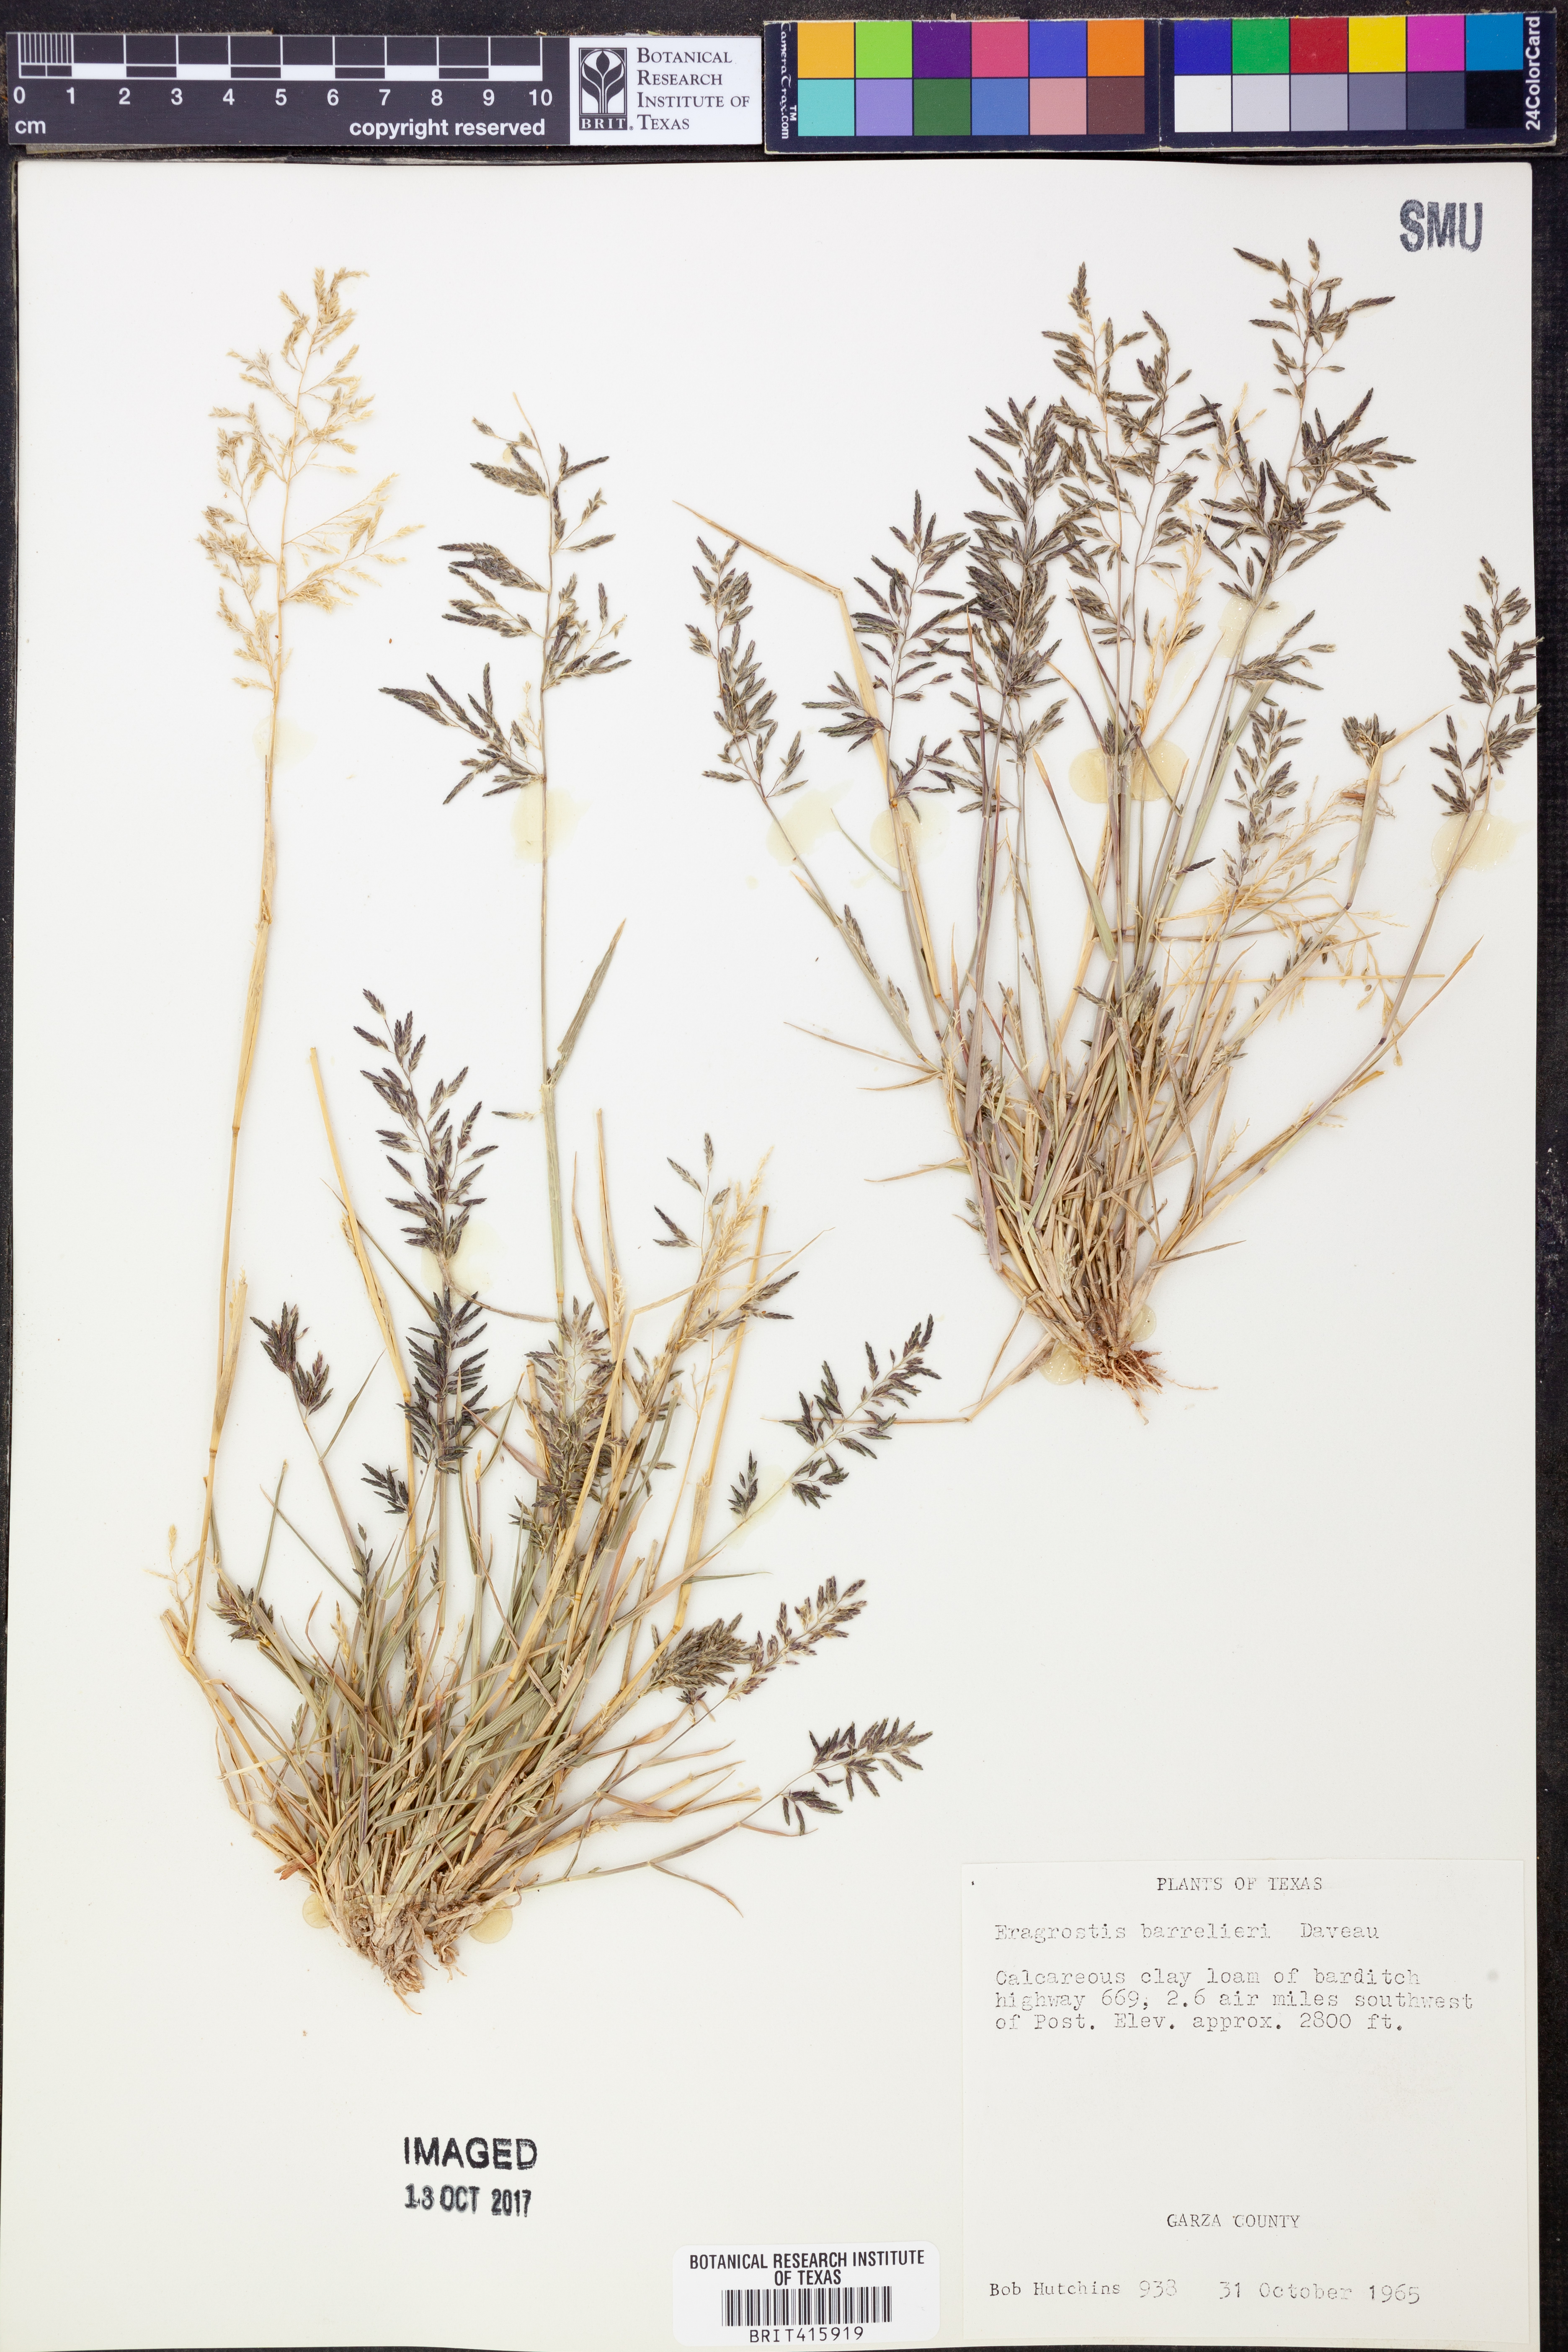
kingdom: Plantae
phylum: Tracheophyta
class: Liliopsida
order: Poales
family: Poaceae
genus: Eragrostis
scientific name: Eragrostis barrelieri
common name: Mediterranean lovegrass
